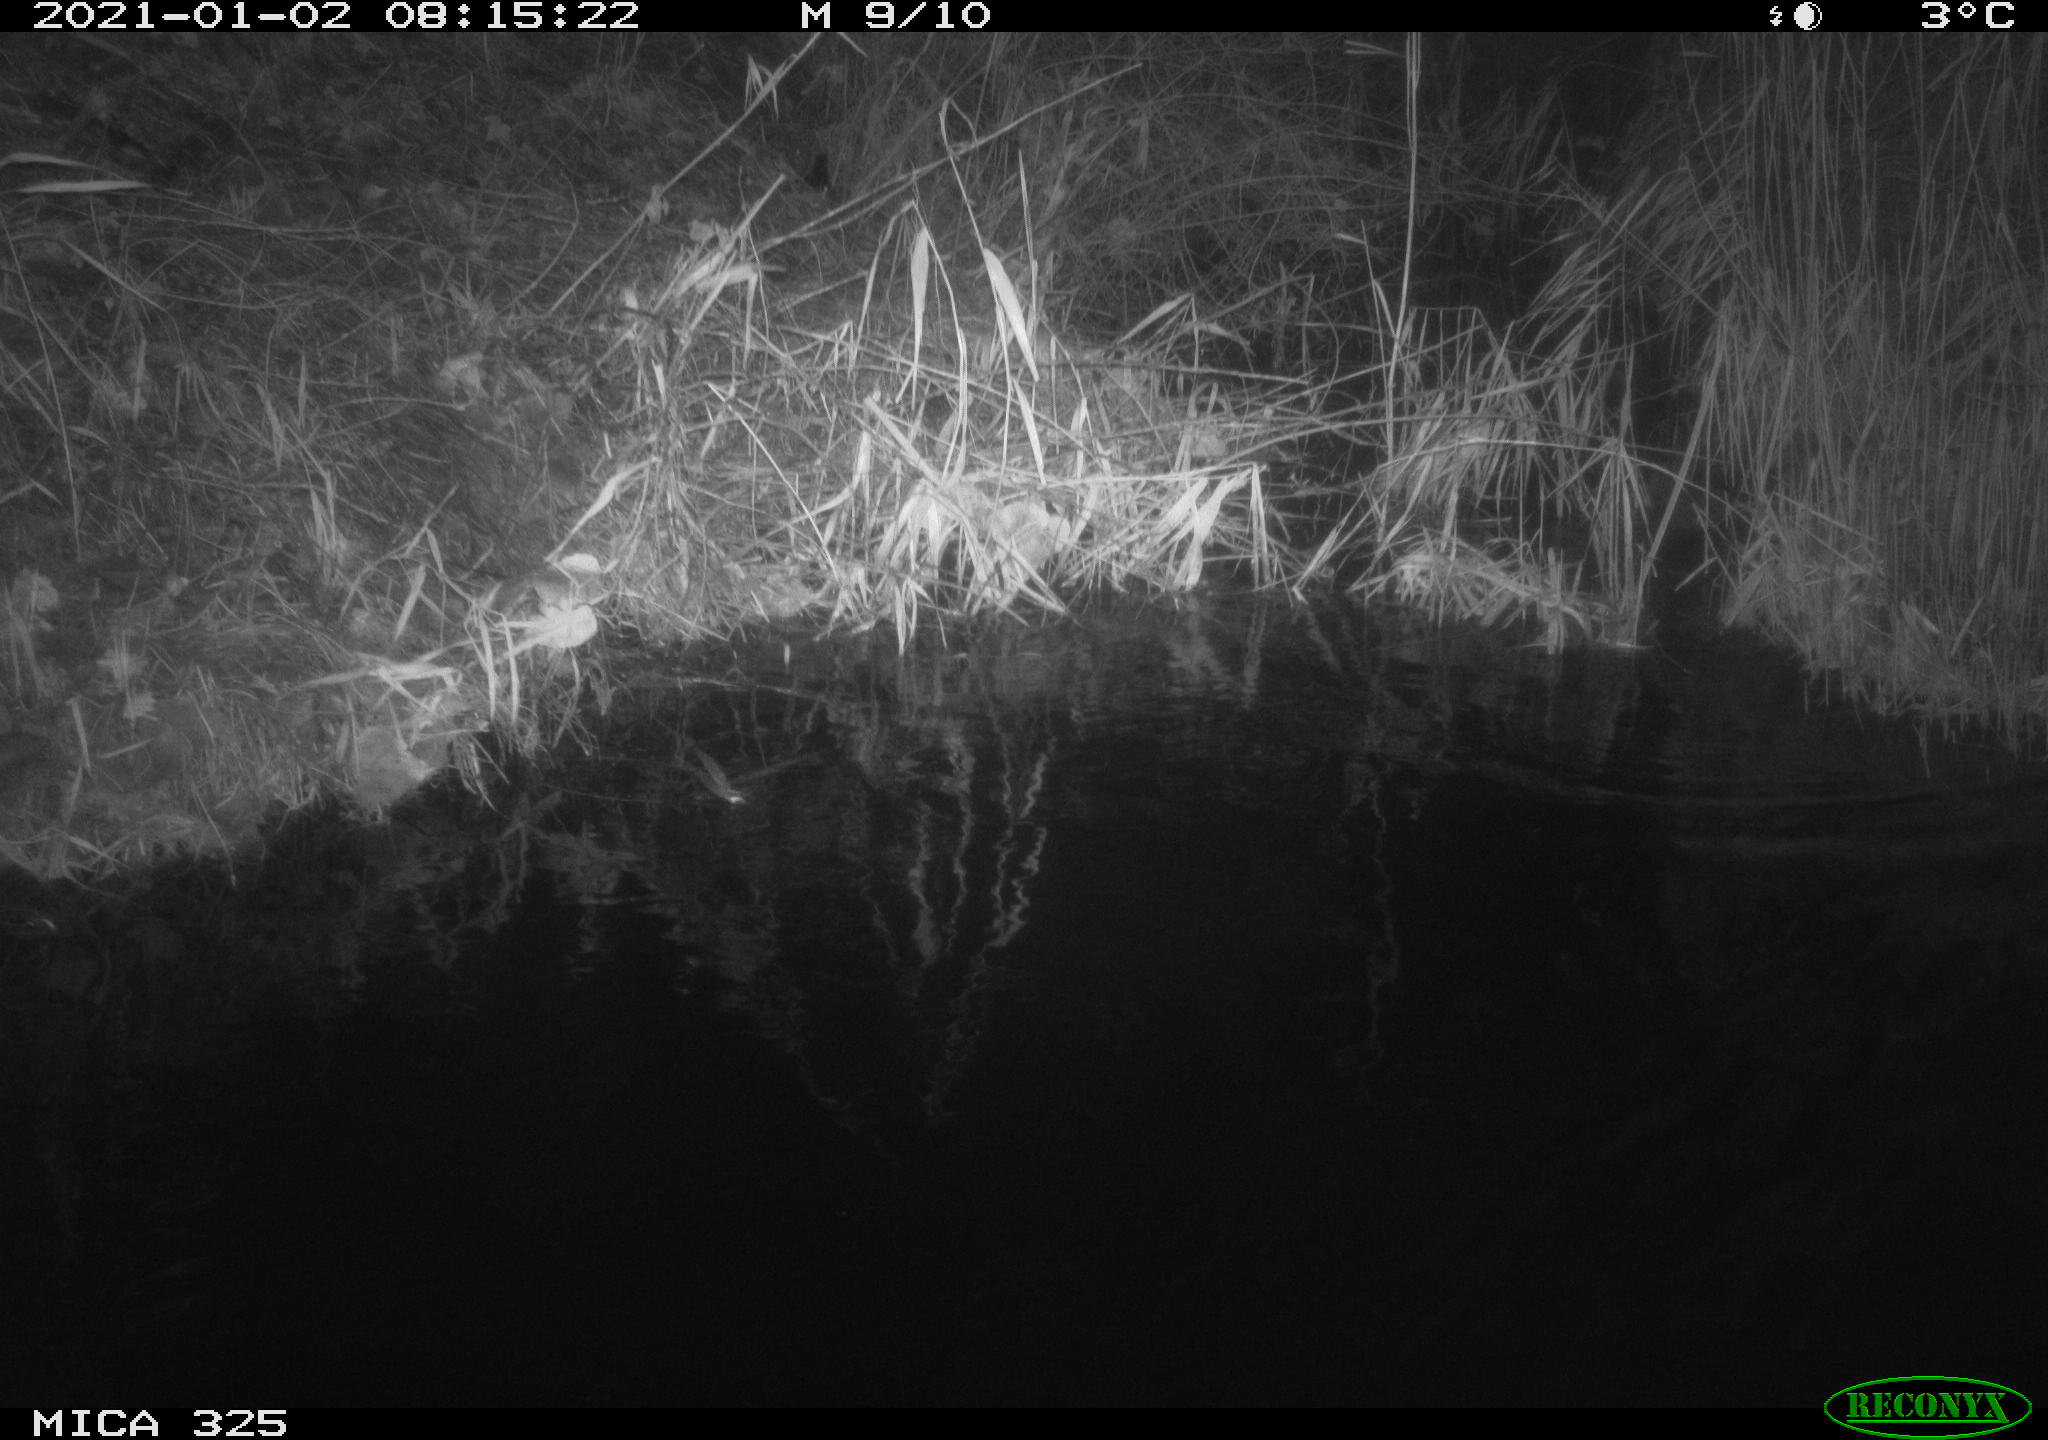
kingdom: Animalia
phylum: Chordata
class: Mammalia
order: Rodentia
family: Cricetidae
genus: Ondatra
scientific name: Ondatra zibethicus
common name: Muskrat
